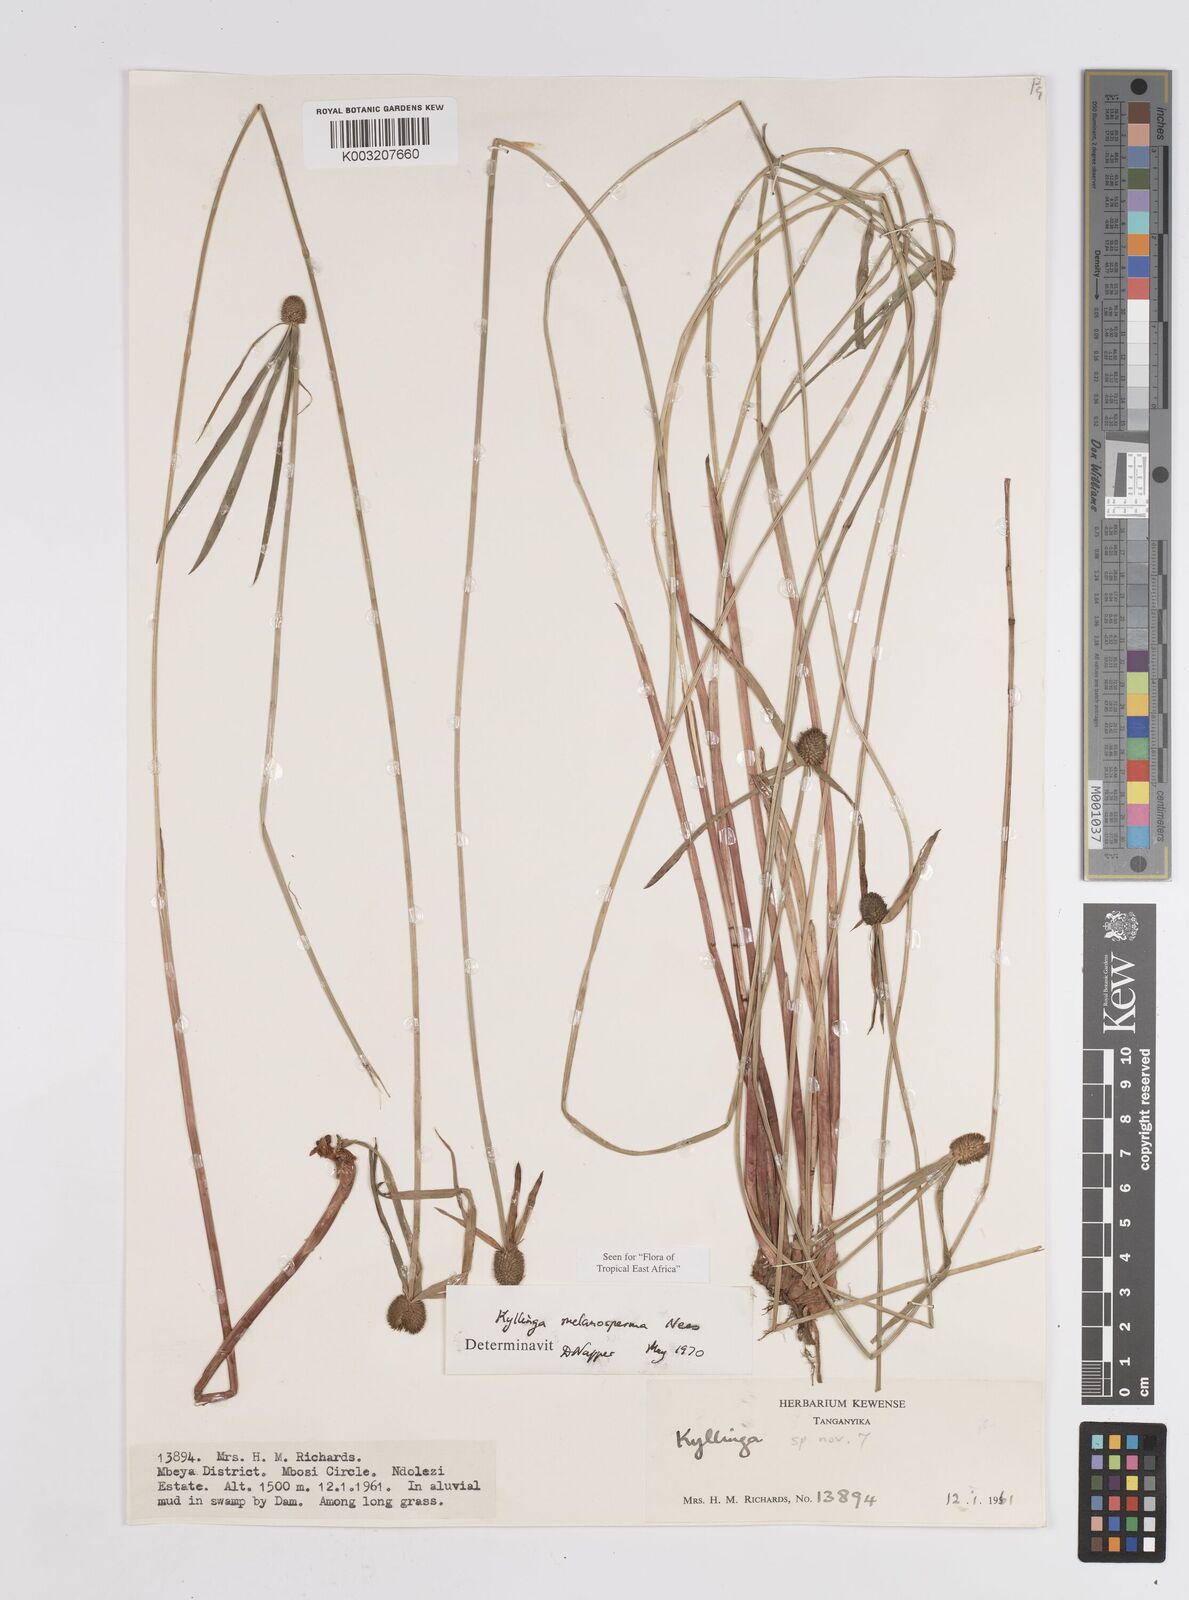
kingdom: Plantae
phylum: Tracheophyta
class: Liliopsida
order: Poales
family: Cyperaceae
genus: Cyperus
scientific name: Cyperus melanospermus
